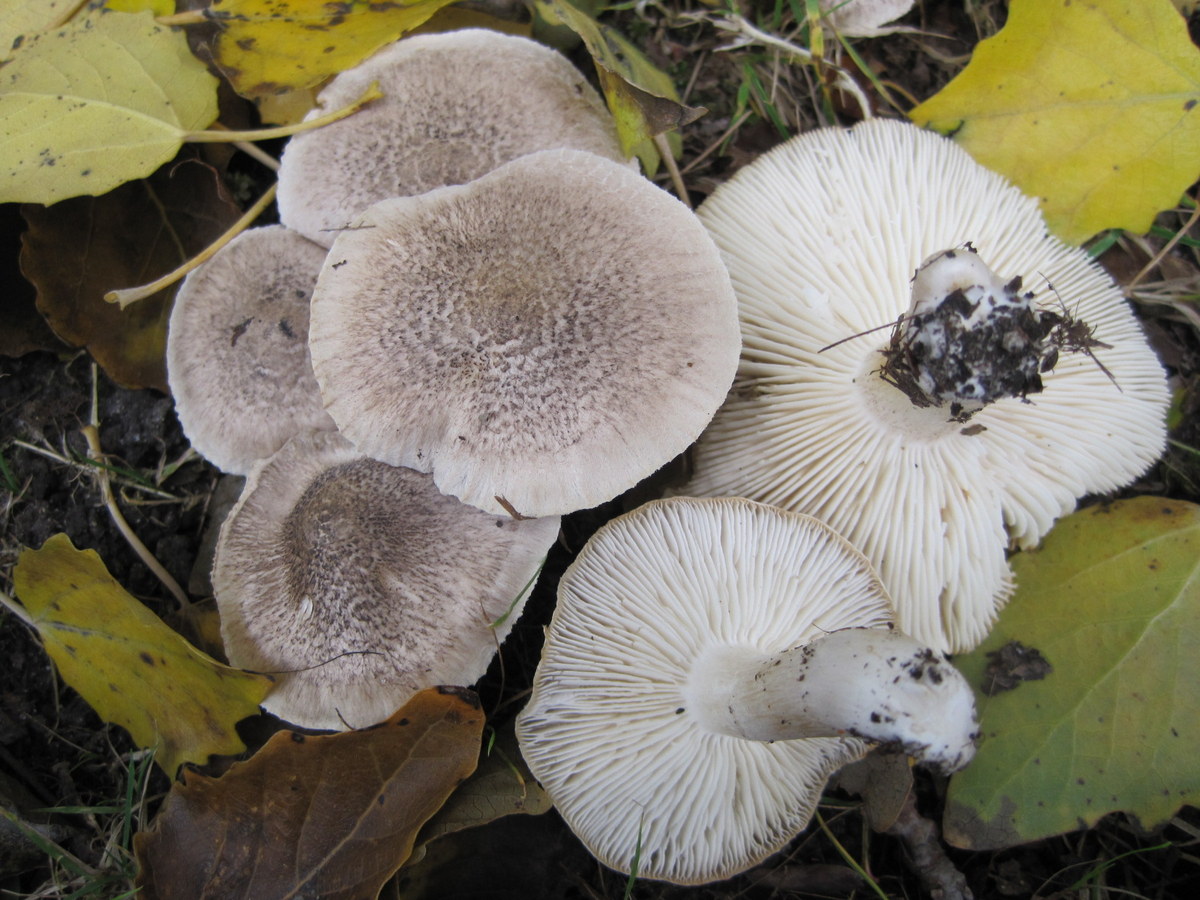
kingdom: Fungi
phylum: Basidiomycota
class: Agaricomycetes
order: Agaricales
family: Tricholomataceae
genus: Tricholoma
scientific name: Tricholoma scalpturatum
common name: gulplettet ridderhat
